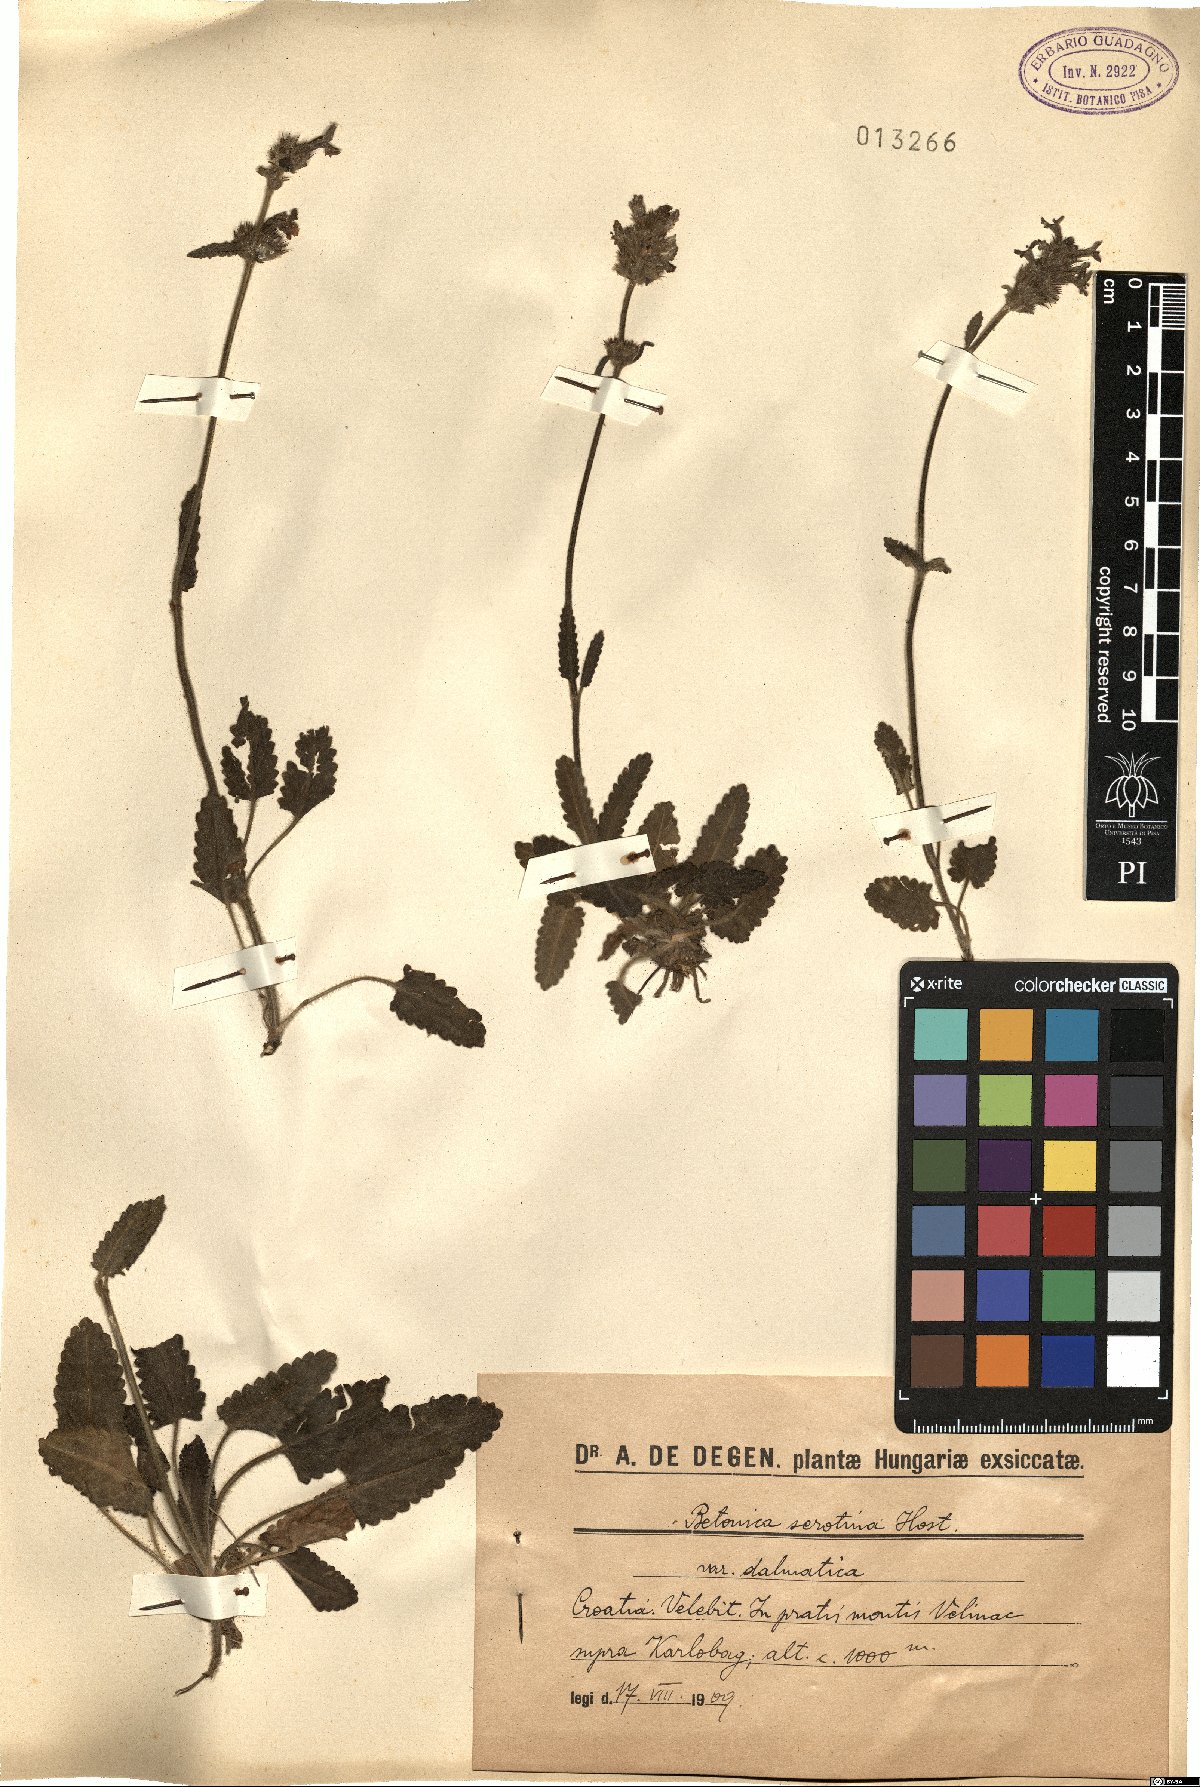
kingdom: Plantae
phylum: Tracheophyta
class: Magnoliopsida
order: Lamiales
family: Lamiaceae
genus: Betonica
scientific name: Betonica officinalis
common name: Bishop's-wort
